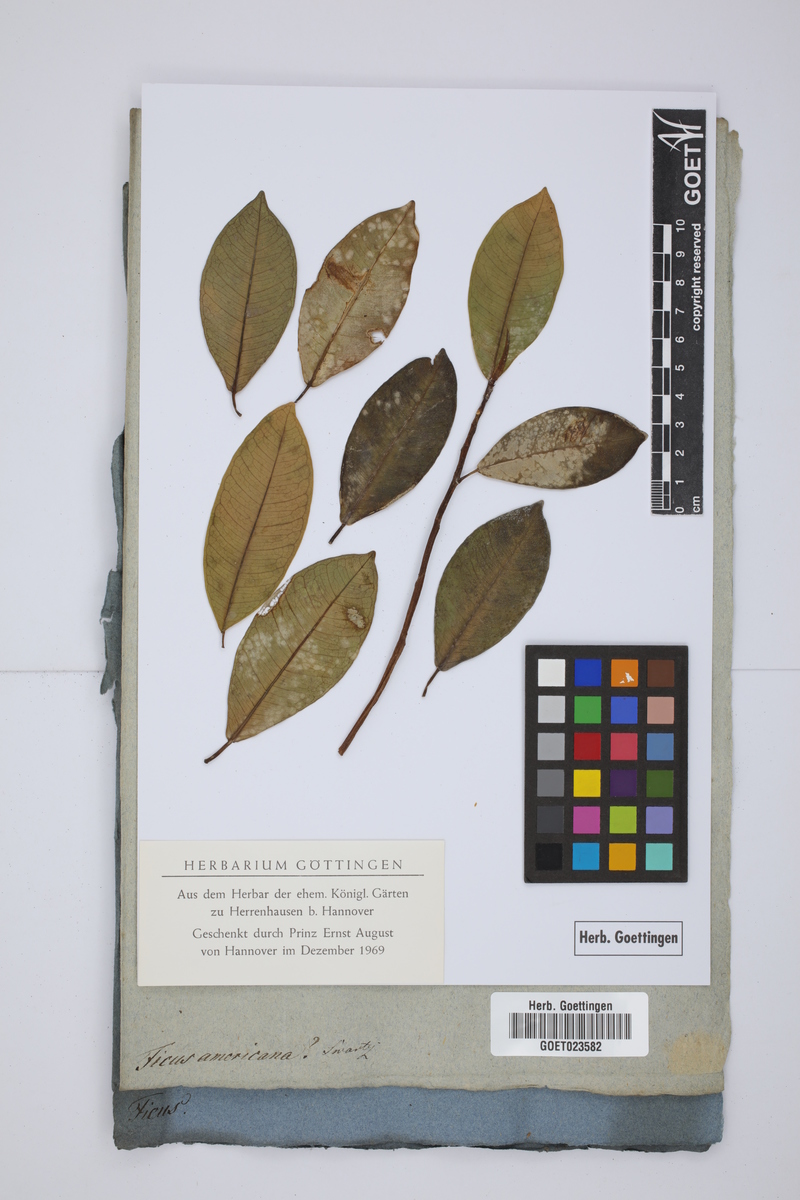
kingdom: Plantae
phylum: Tracheophyta
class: Magnoliopsida
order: Rosales
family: Moraceae
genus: Ficus
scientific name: Ficus americana
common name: Jamaican cherry fig
